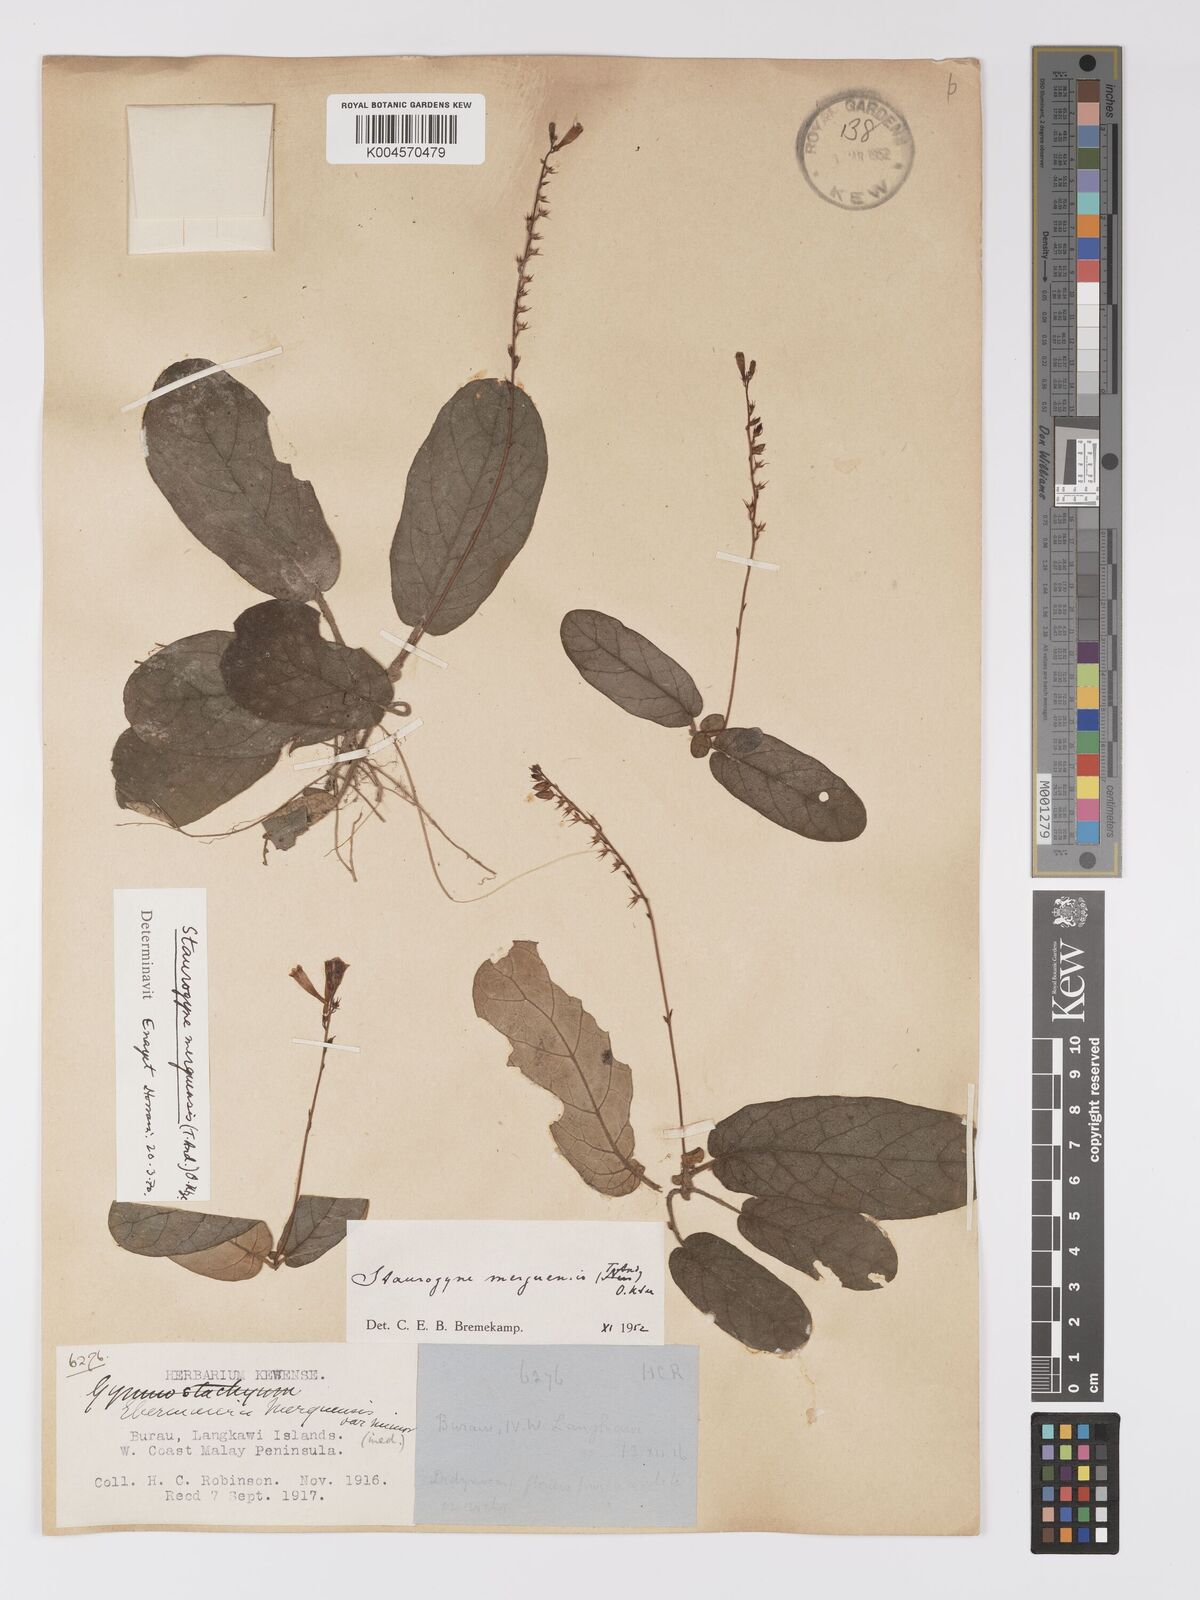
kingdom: Plantae
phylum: Tracheophyta
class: Magnoliopsida
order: Lamiales
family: Acanthaceae
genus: Staurogyne
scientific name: Staurogyne merguensis
